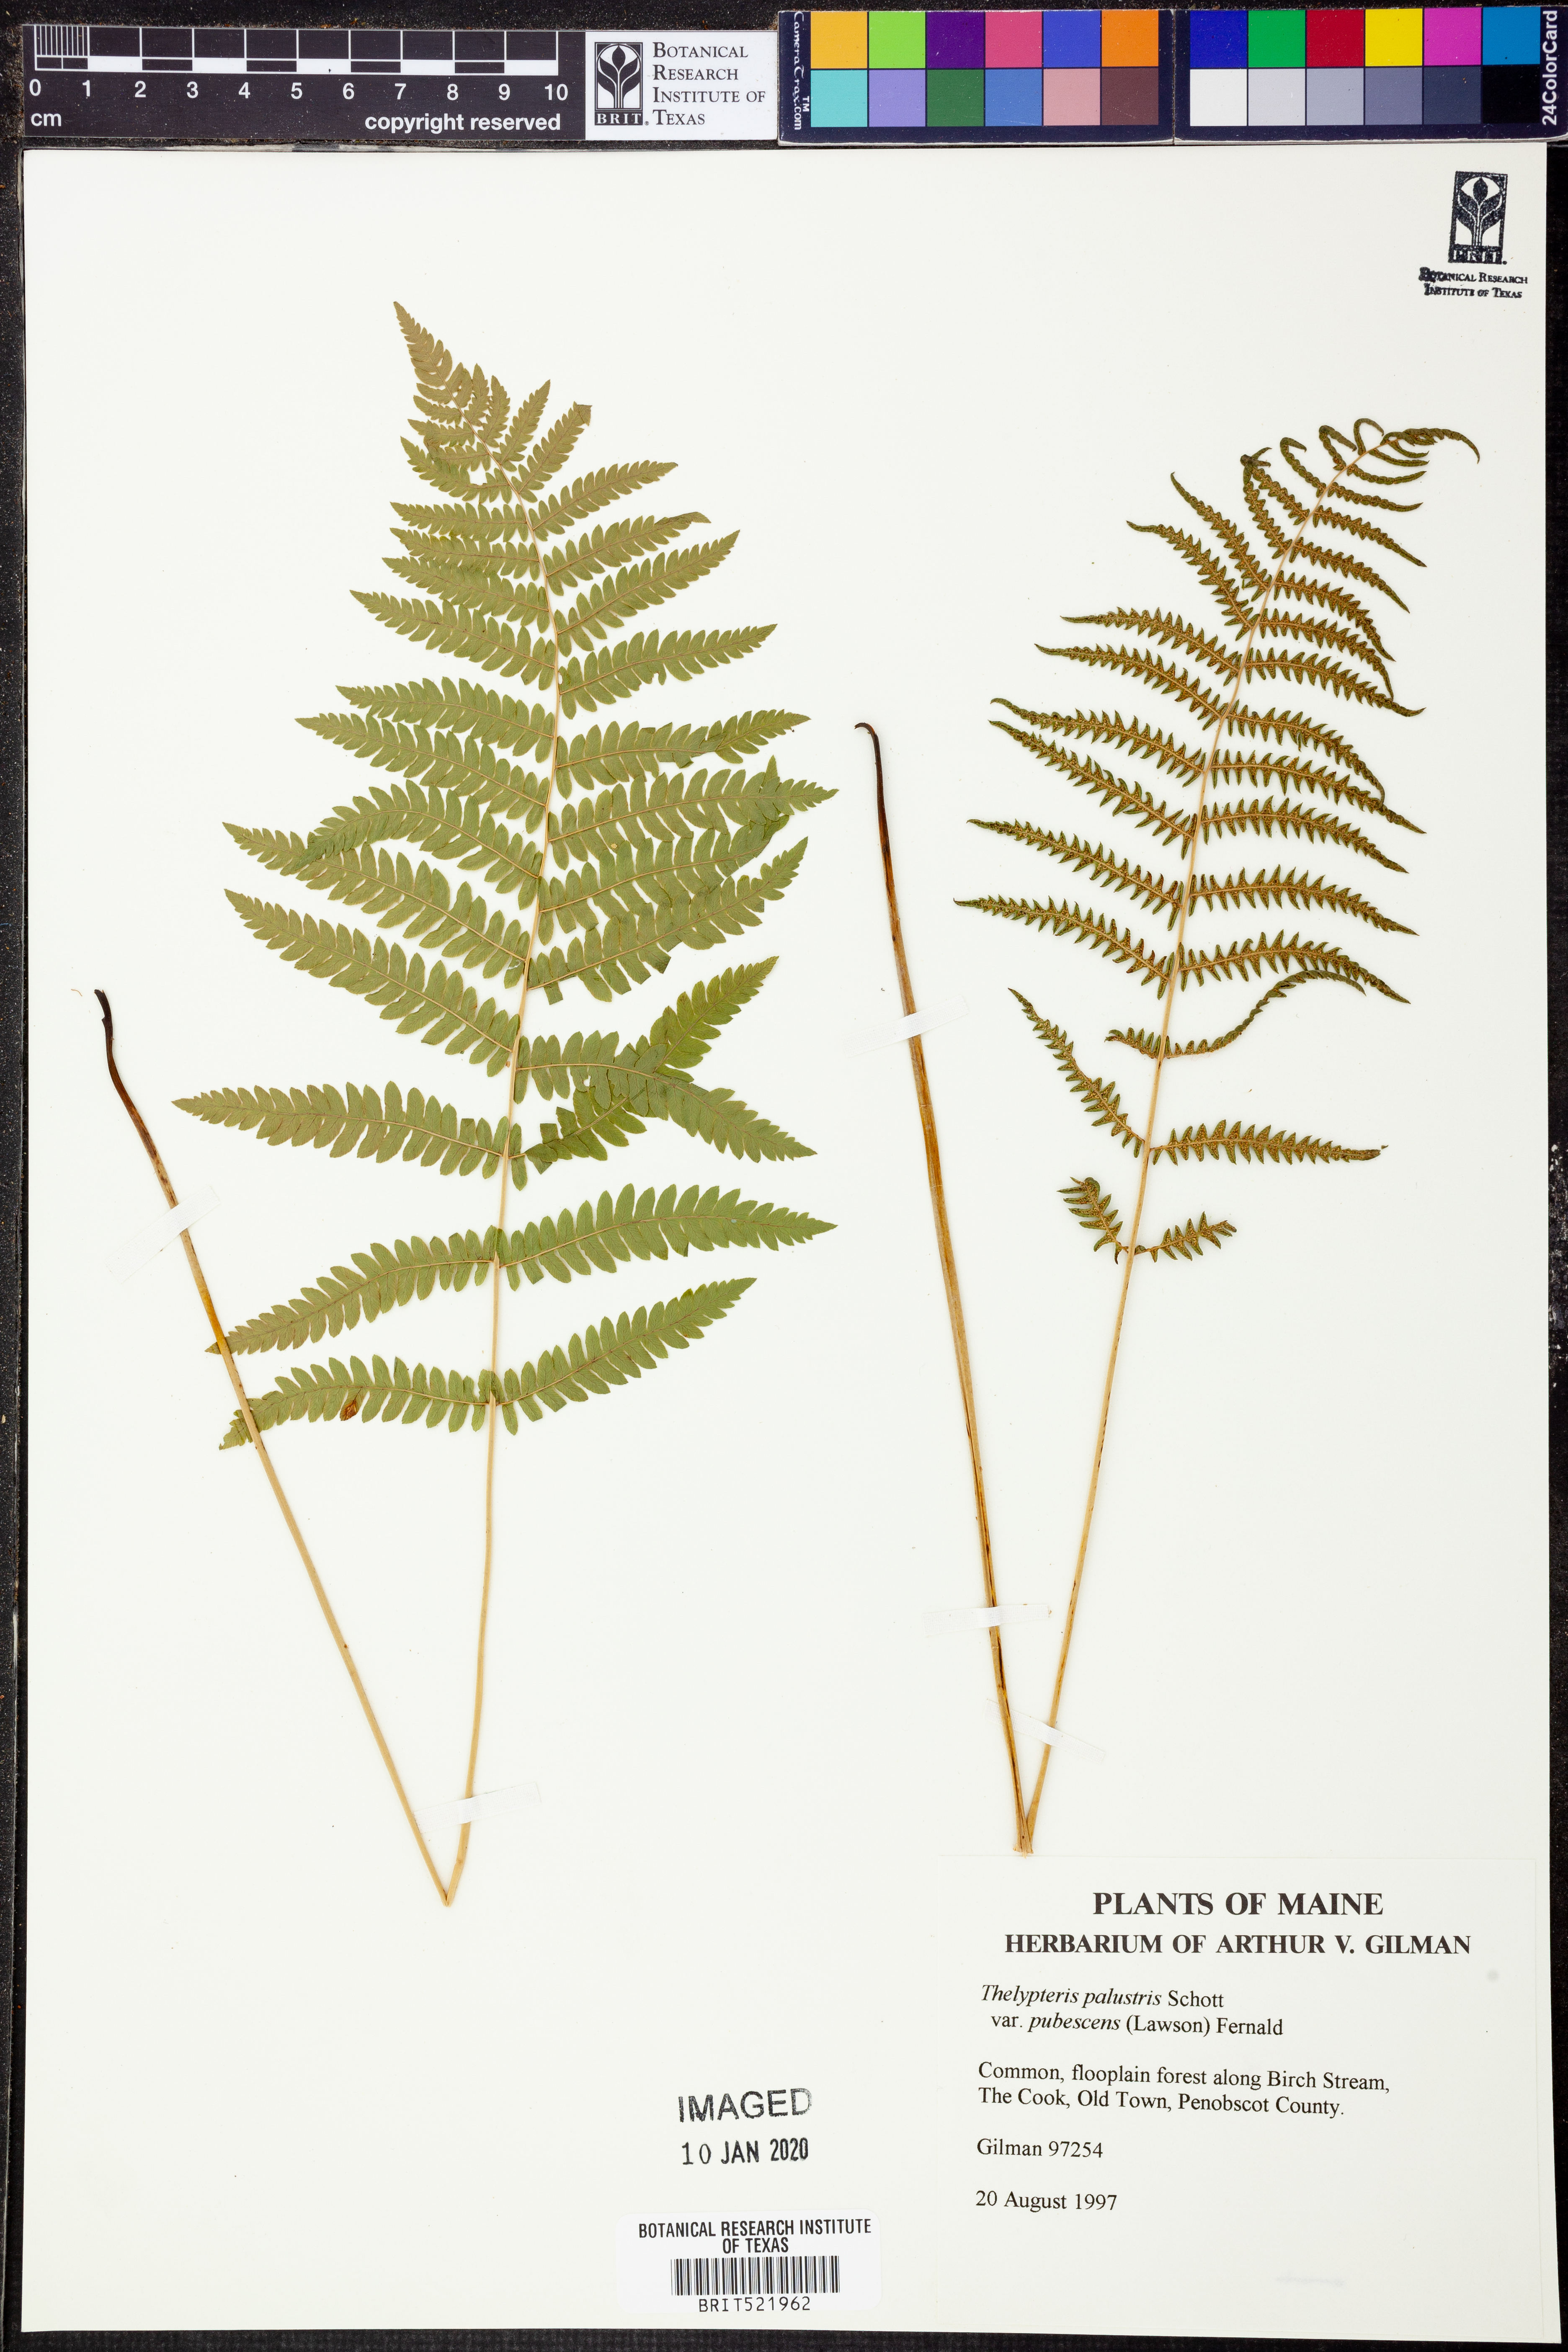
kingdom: Plantae
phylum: Tracheophyta
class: Polypodiopsida
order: Polypodiales
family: Thelypteridaceae
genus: Thelypteris
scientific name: Thelypteris palustris
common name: Marsh fern
